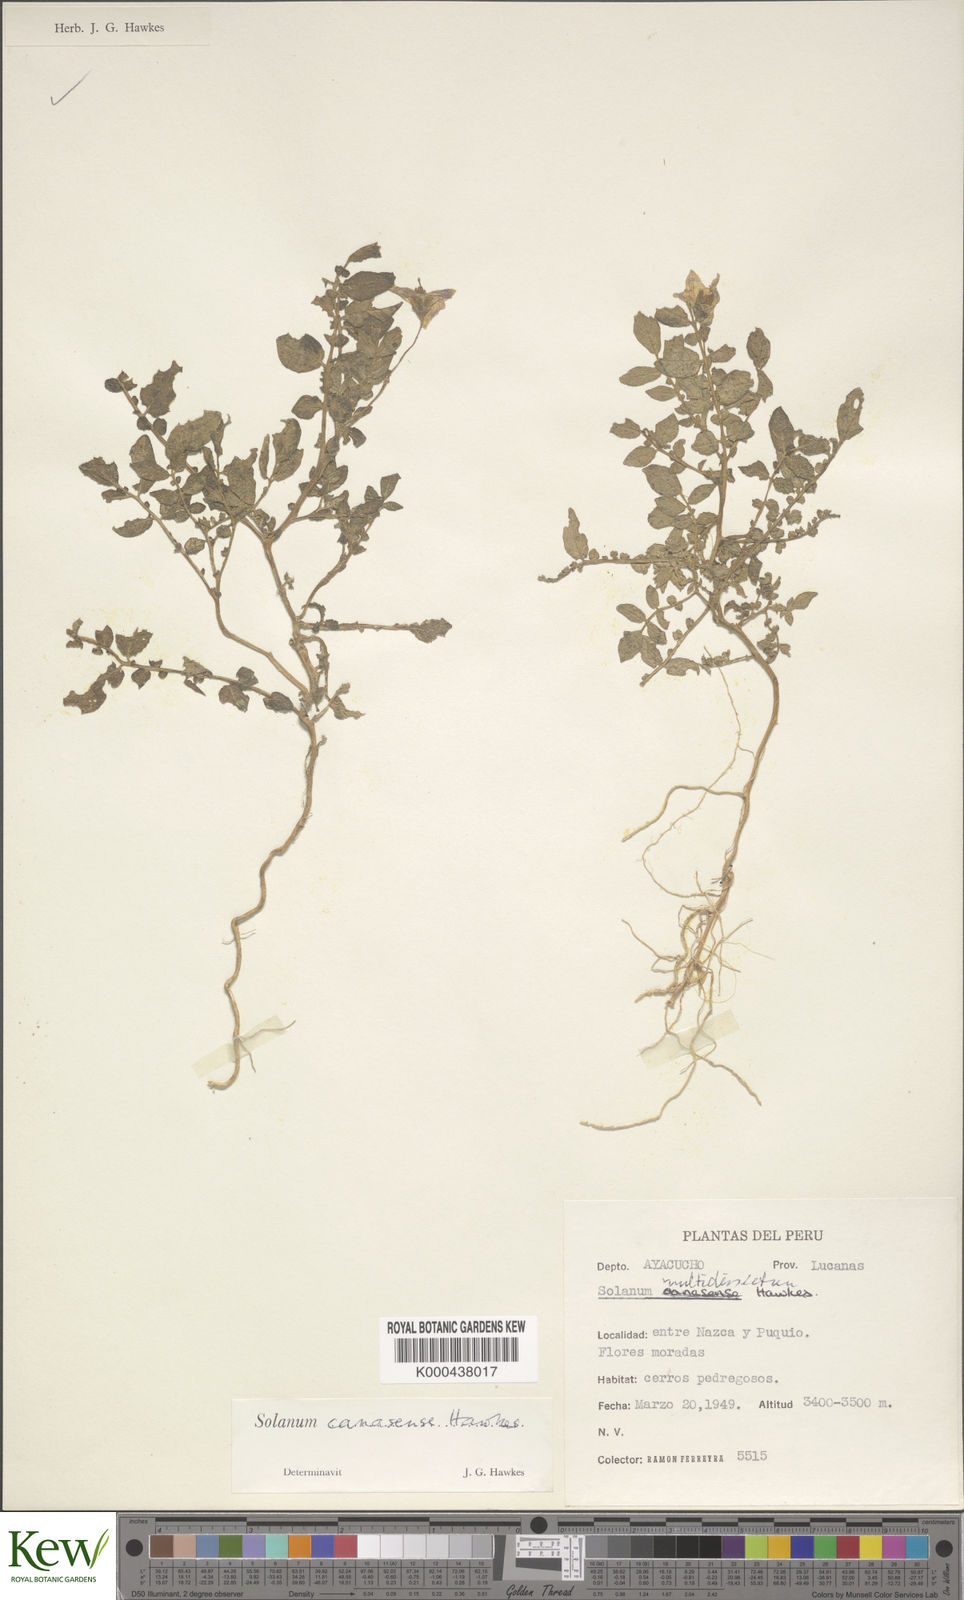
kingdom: Plantae
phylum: Tracheophyta
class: Magnoliopsida
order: Solanales
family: Solanaceae
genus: Solanum
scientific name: Solanum candolleanum
